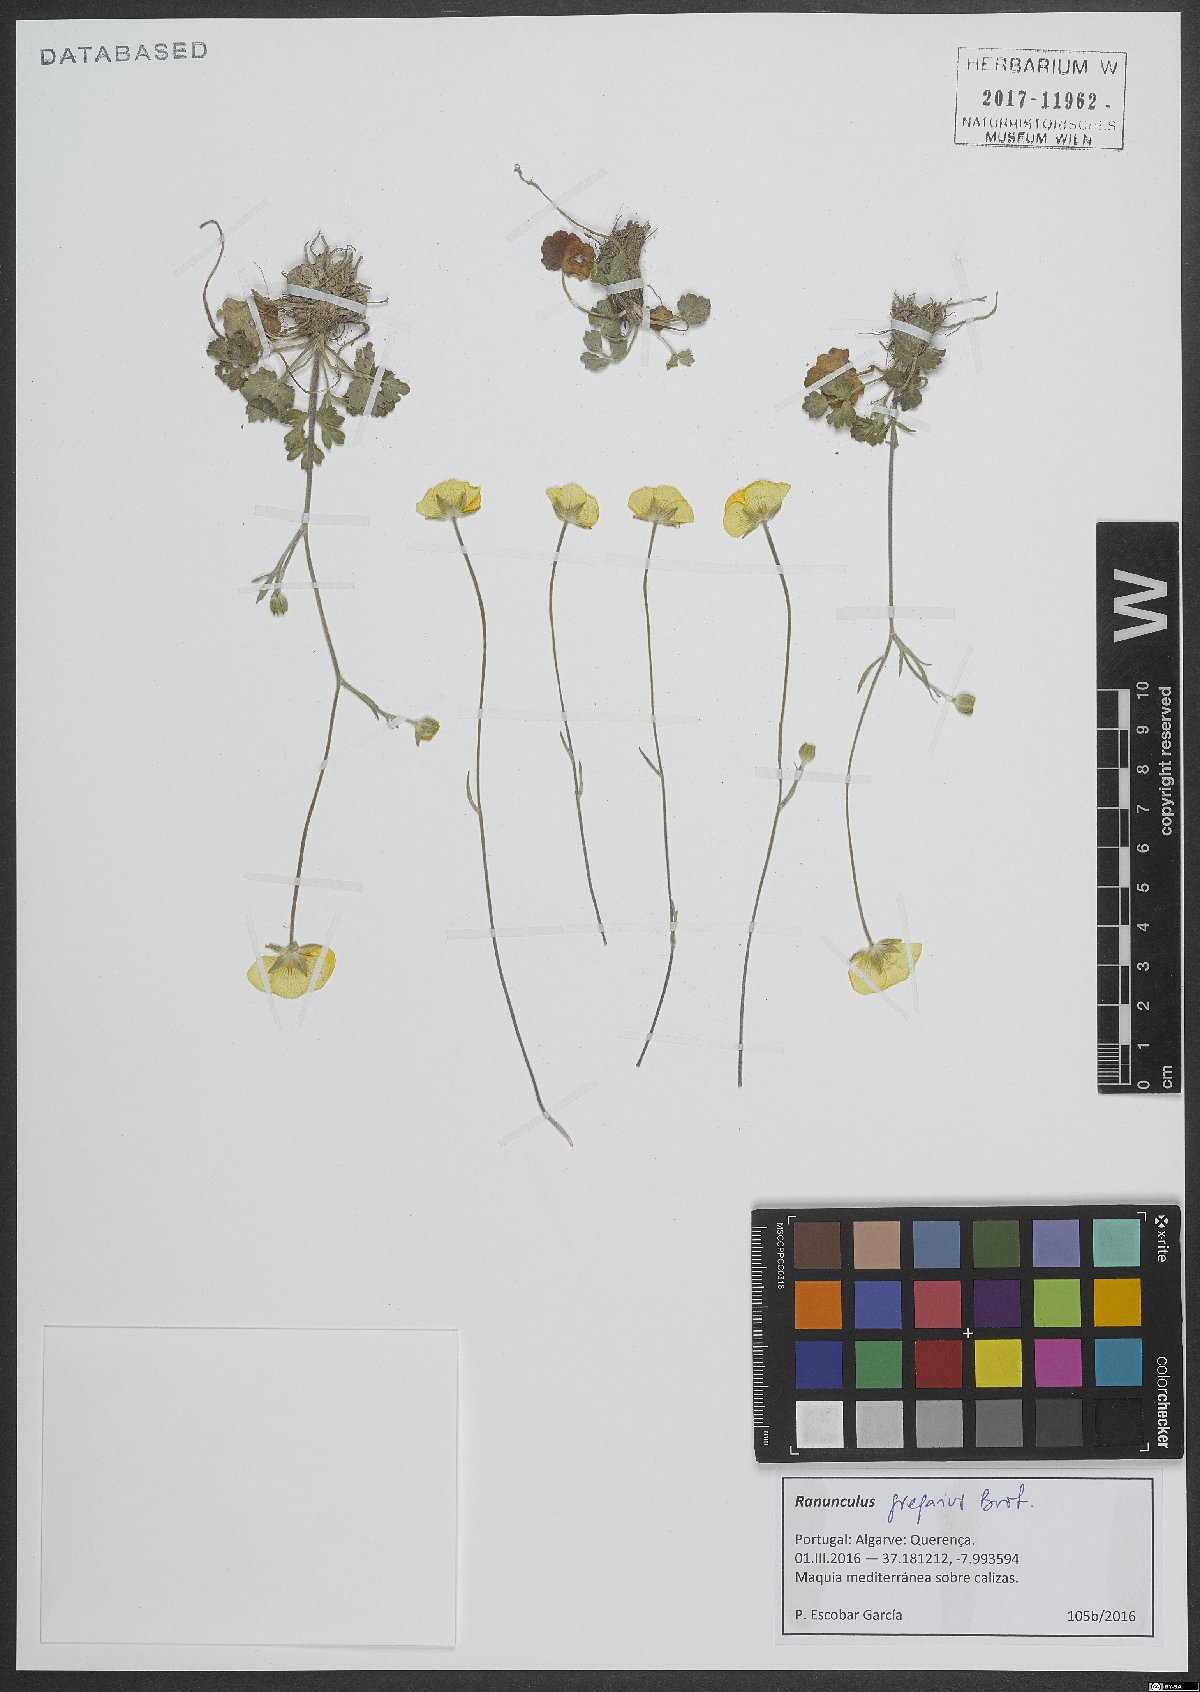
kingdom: Plantae
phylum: Tracheophyta
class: Magnoliopsida
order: Ranunculales
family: Ranunculaceae
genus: Ranunculus
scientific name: Ranunculus gregarius
